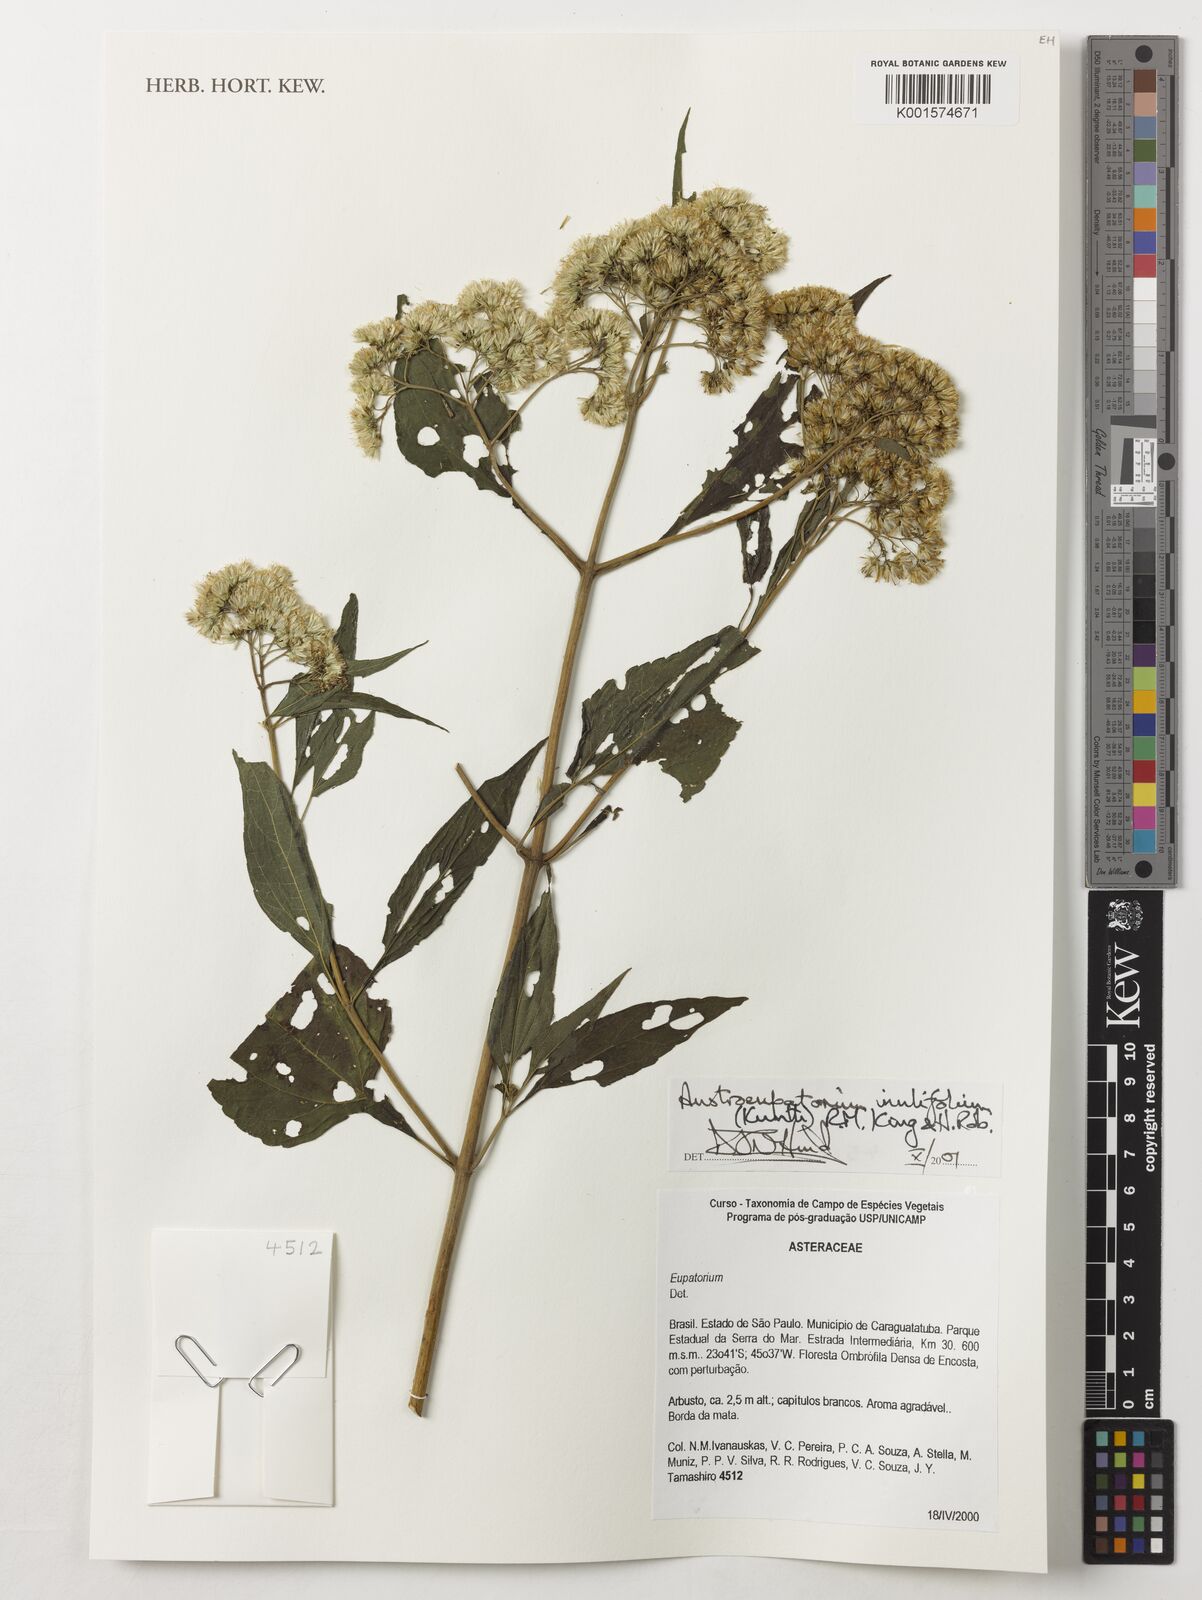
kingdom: Plantae
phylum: Tracheophyta
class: Magnoliopsida
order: Asterales
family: Asteraceae
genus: Austroeupatorium
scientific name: Austroeupatorium inulifolium
